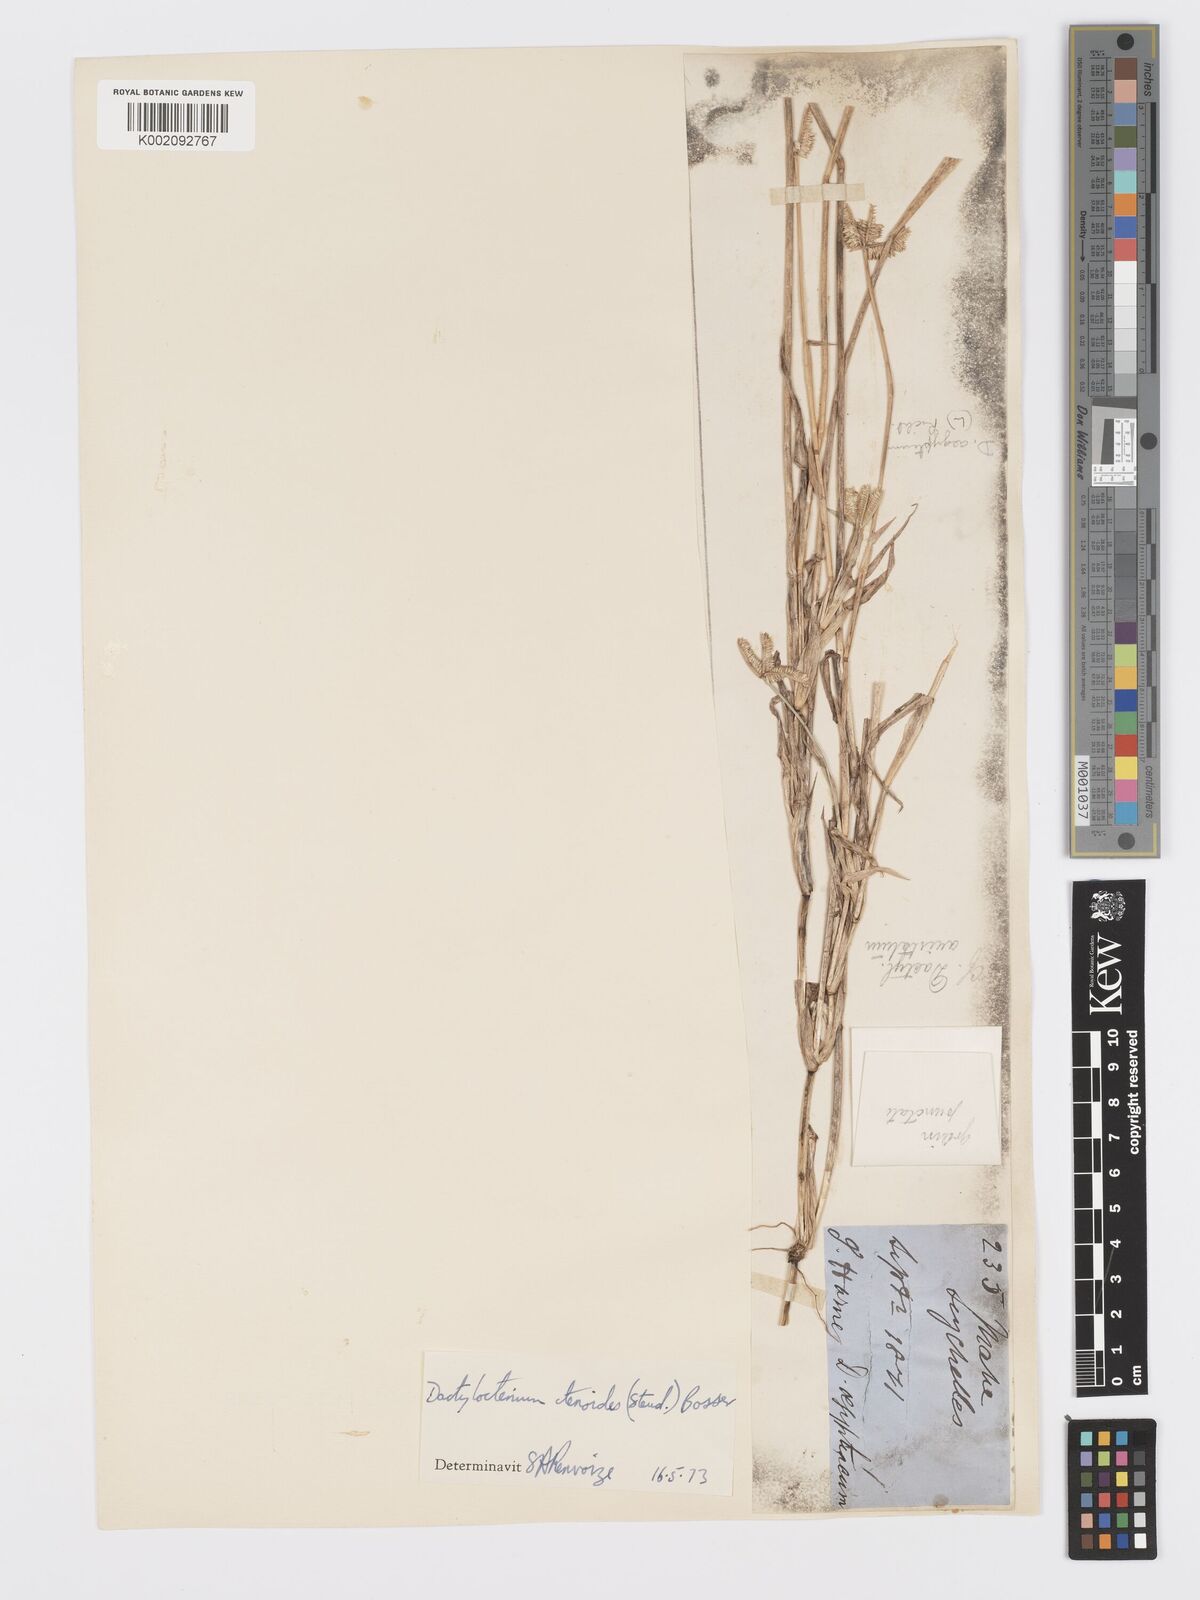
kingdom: Plantae
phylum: Tracheophyta
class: Liliopsida
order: Poales
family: Poaceae
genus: Dactyloctenium
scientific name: Dactyloctenium ctenoides
